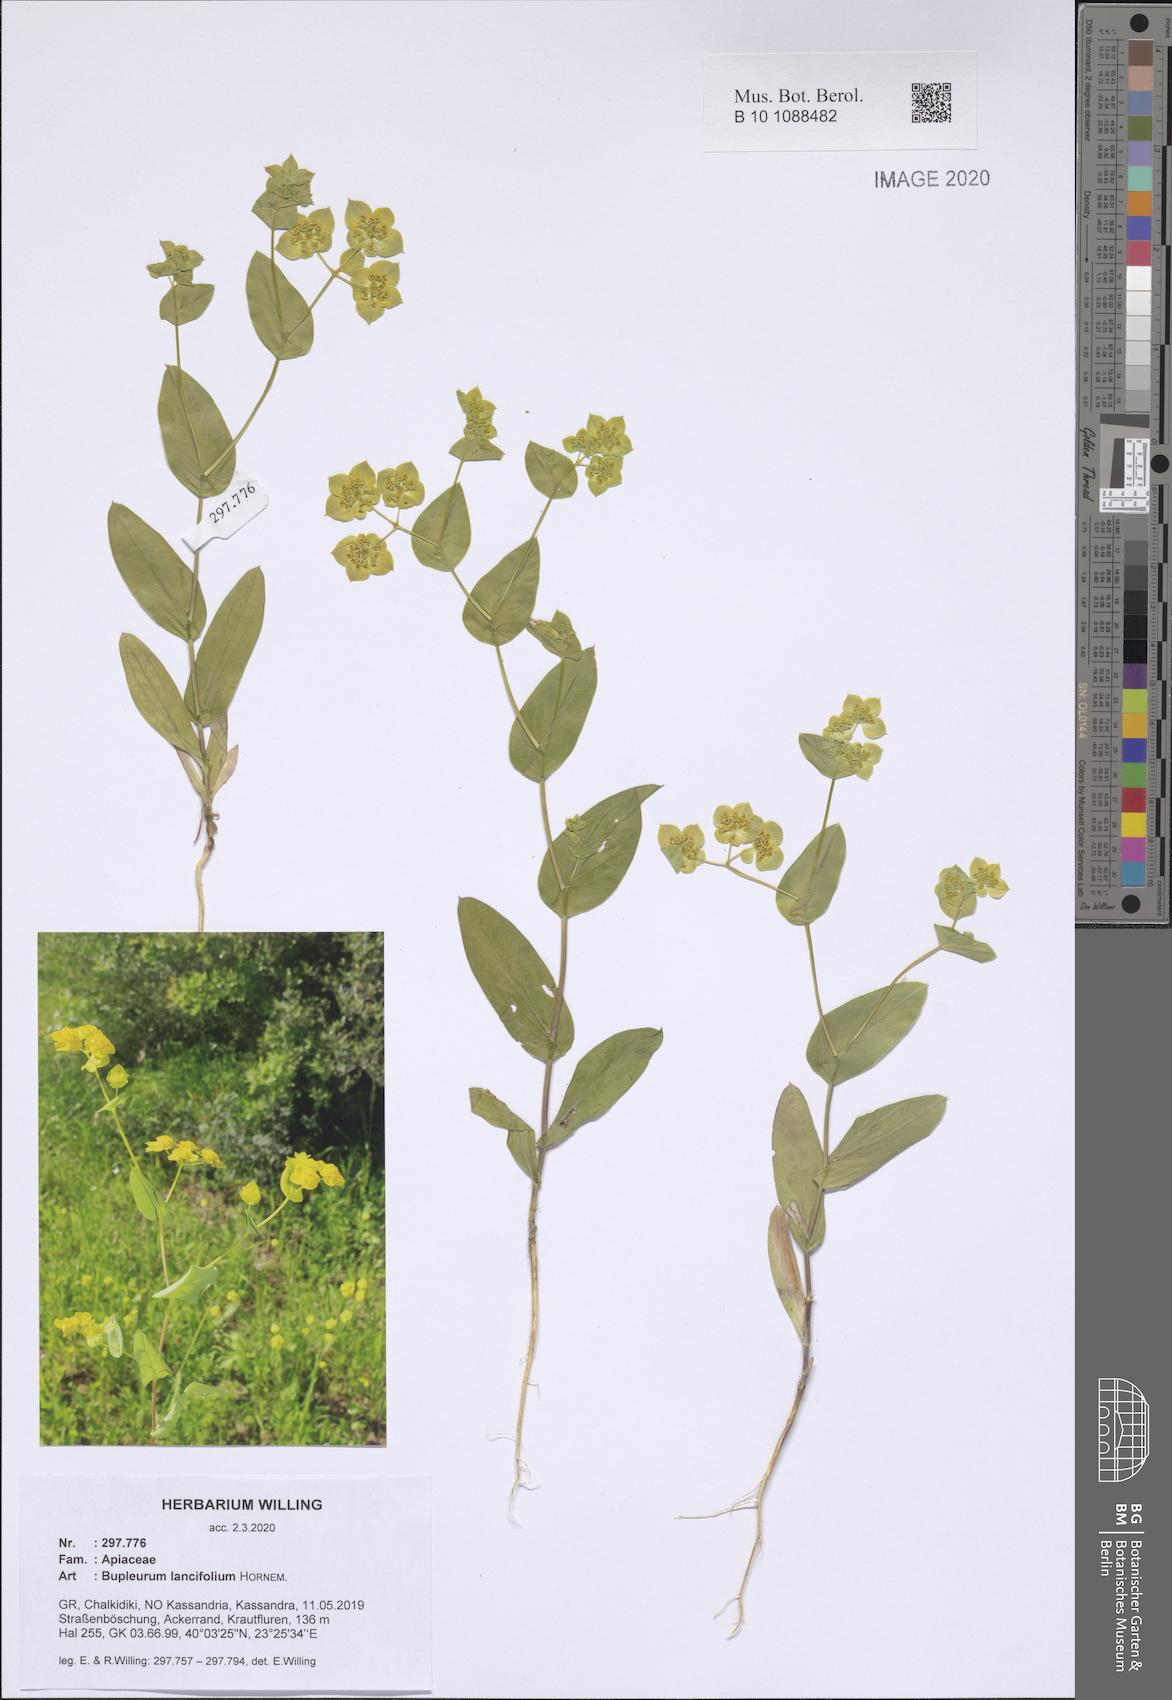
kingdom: Plantae
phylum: Tracheophyta
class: Magnoliopsida
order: Apiales
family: Apiaceae
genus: Bupleurum
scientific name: Bupleurum lancifolium
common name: False thorow-wax
